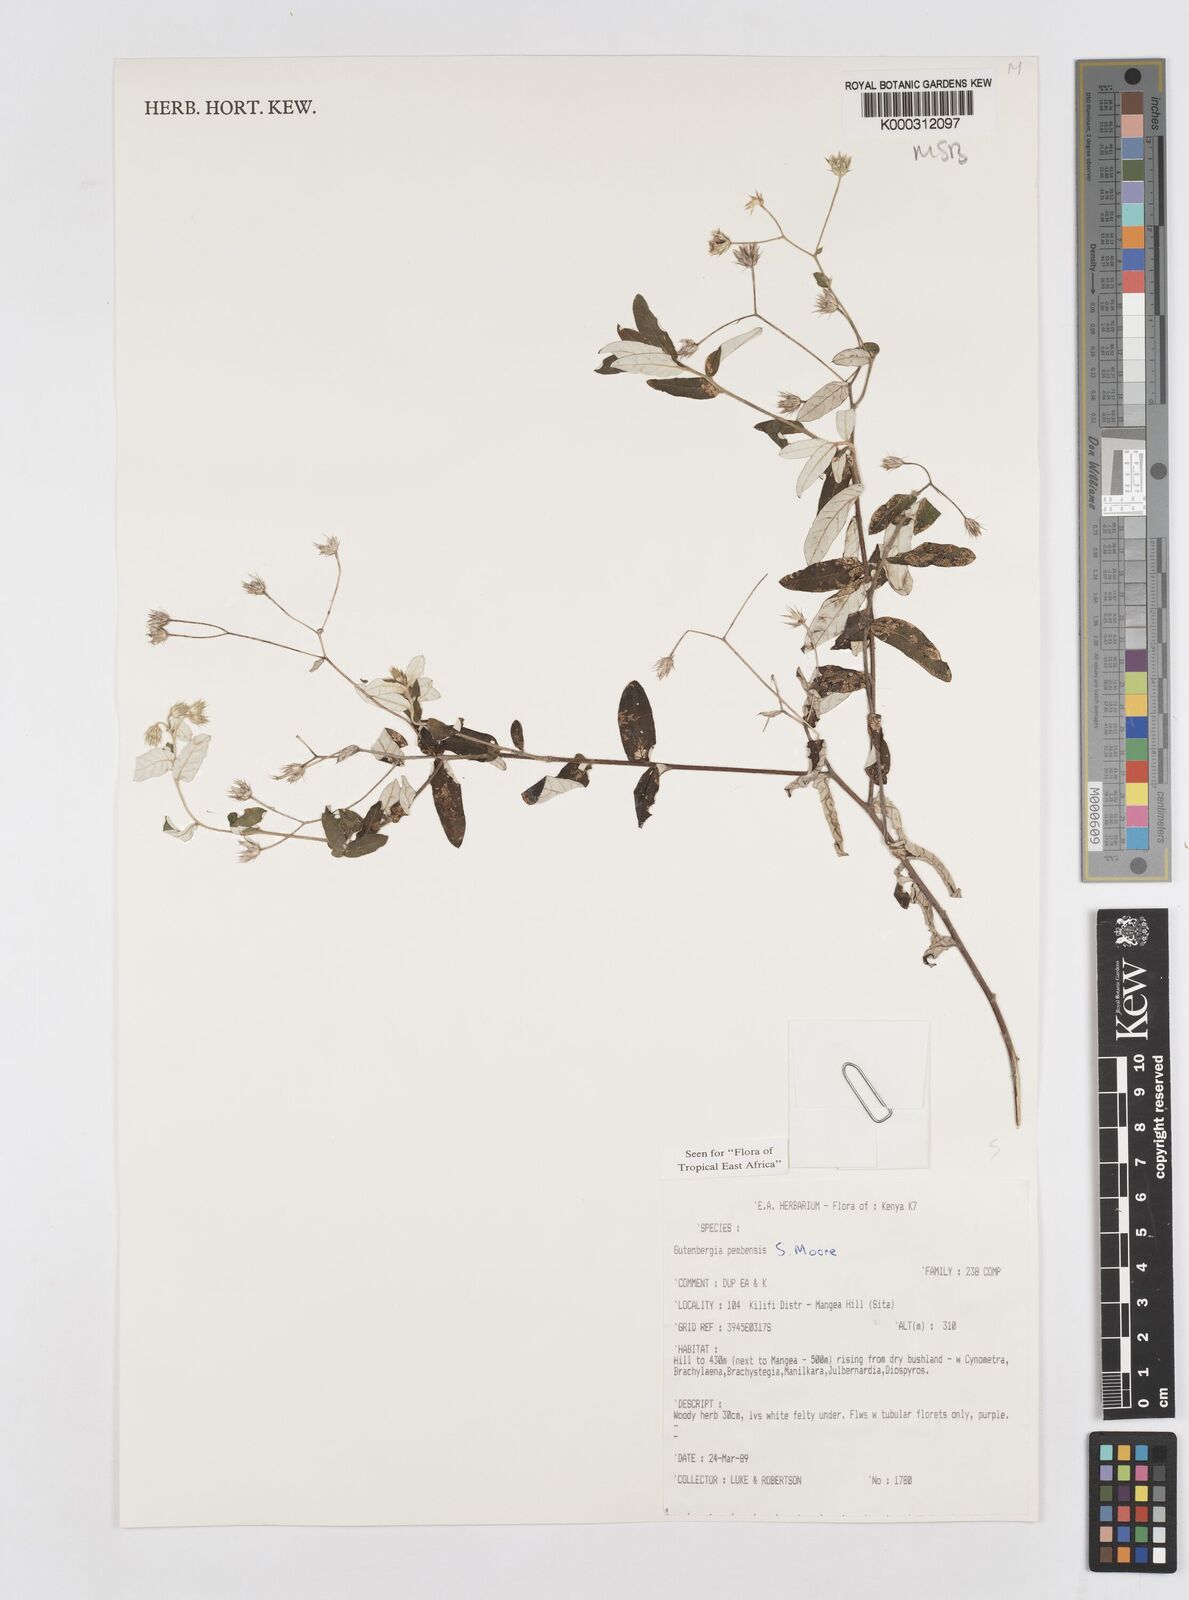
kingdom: Plantae
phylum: Tracheophyta
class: Magnoliopsida
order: Asterales
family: Asteraceae
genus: Gutenbergia
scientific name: Gutenbergia pembensis
